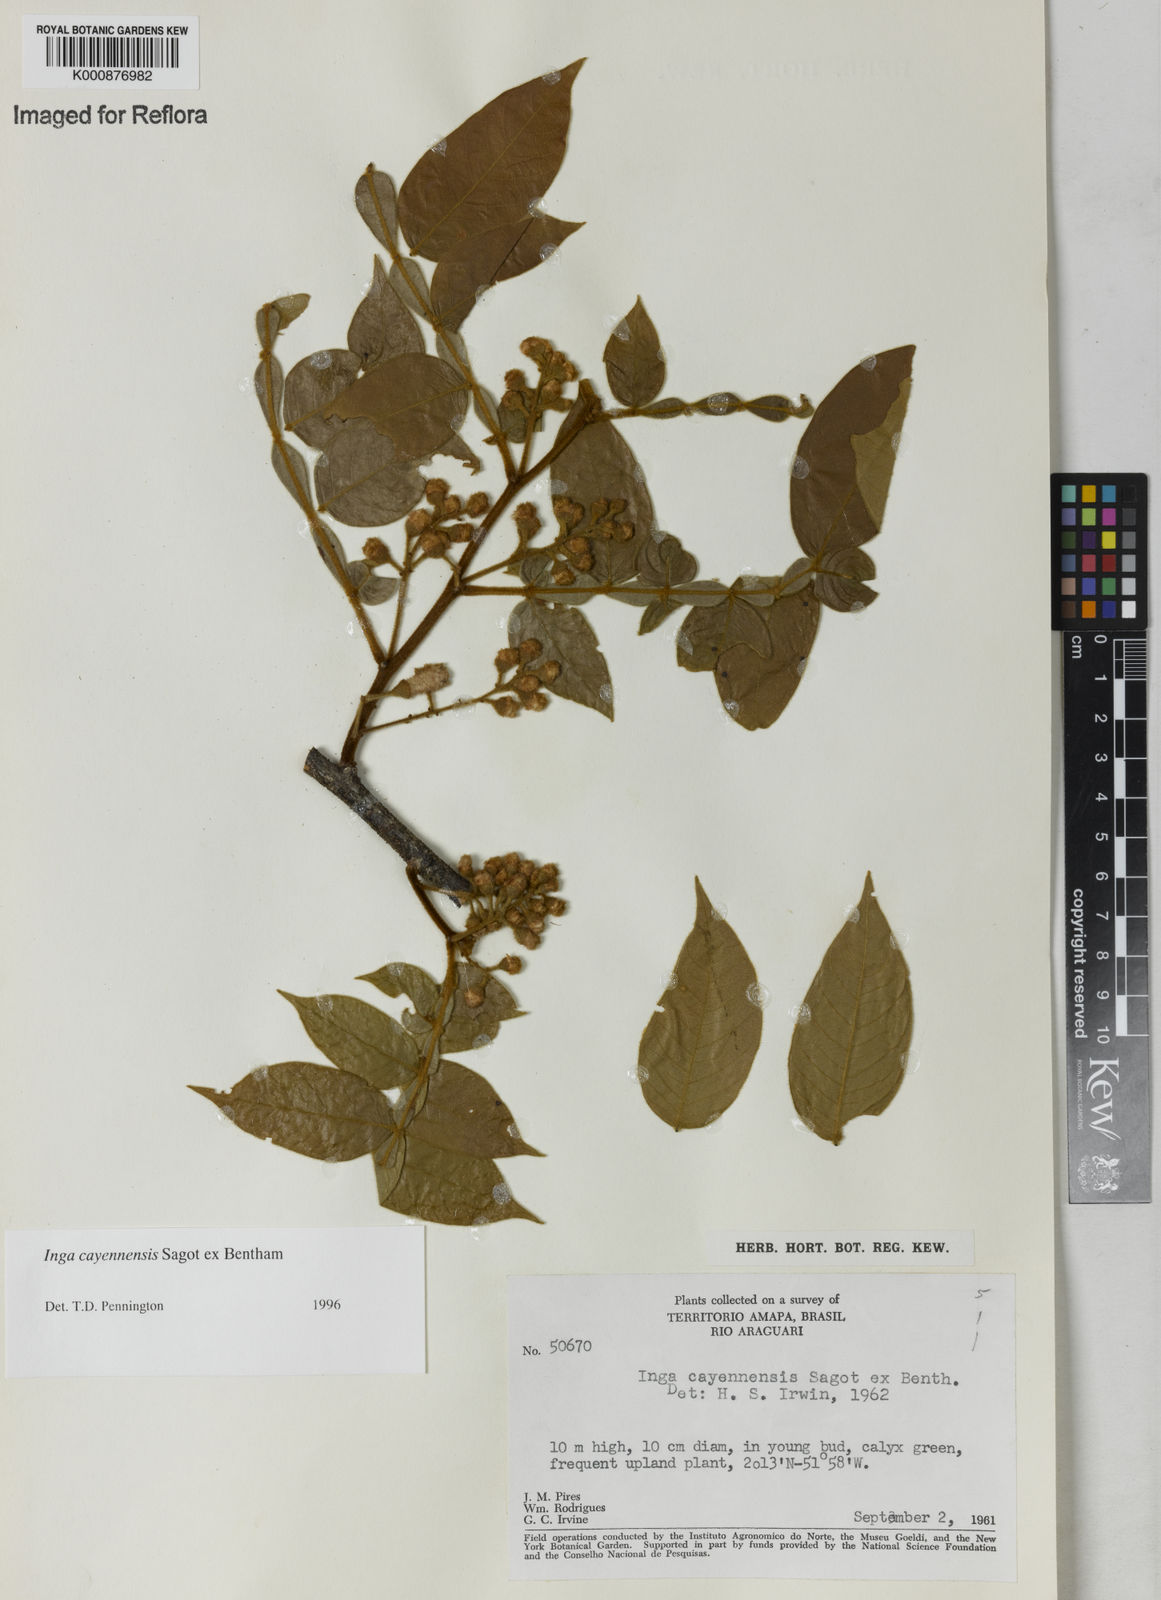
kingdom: Plantae
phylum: Tracheophyta
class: Magnoliopsida
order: Fabales
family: Fabaceae
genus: Inga
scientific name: Inga cayennensis
